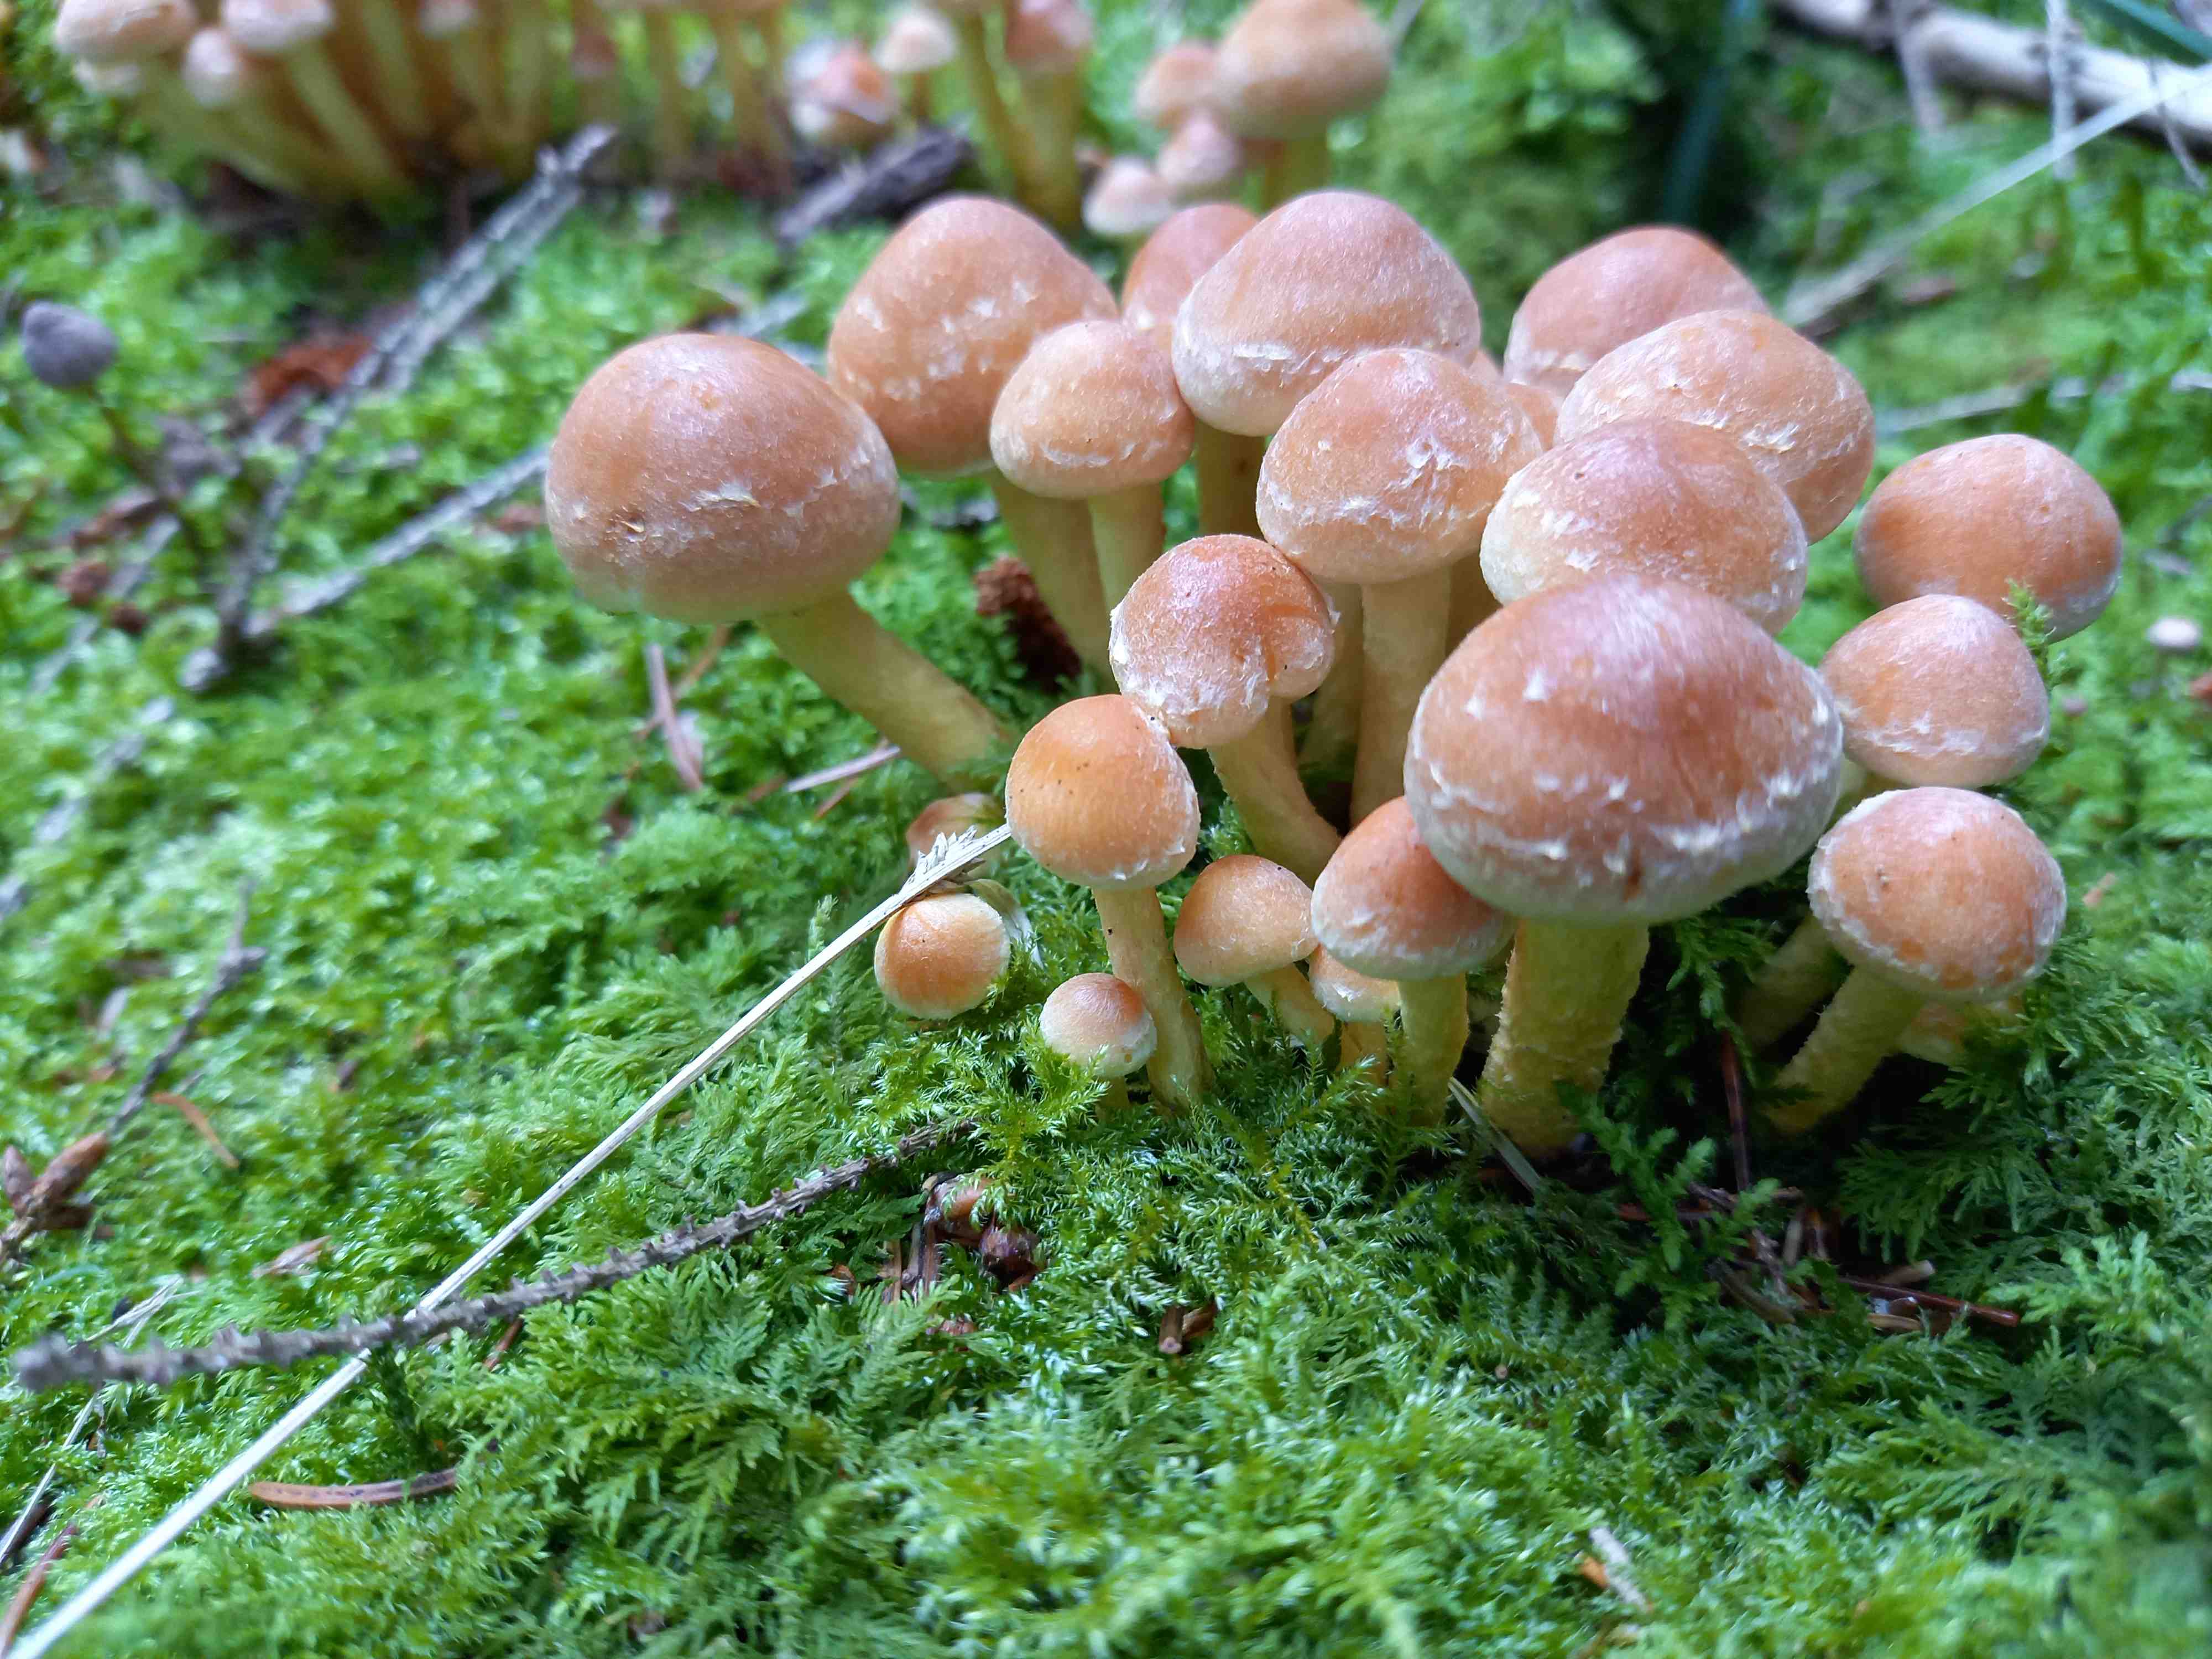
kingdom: Fungi
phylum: Basidiomycota
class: Agaricomycetes
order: Agaricales
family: Strophariaceae
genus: Hypholoma
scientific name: Hypholoma fasciculare
